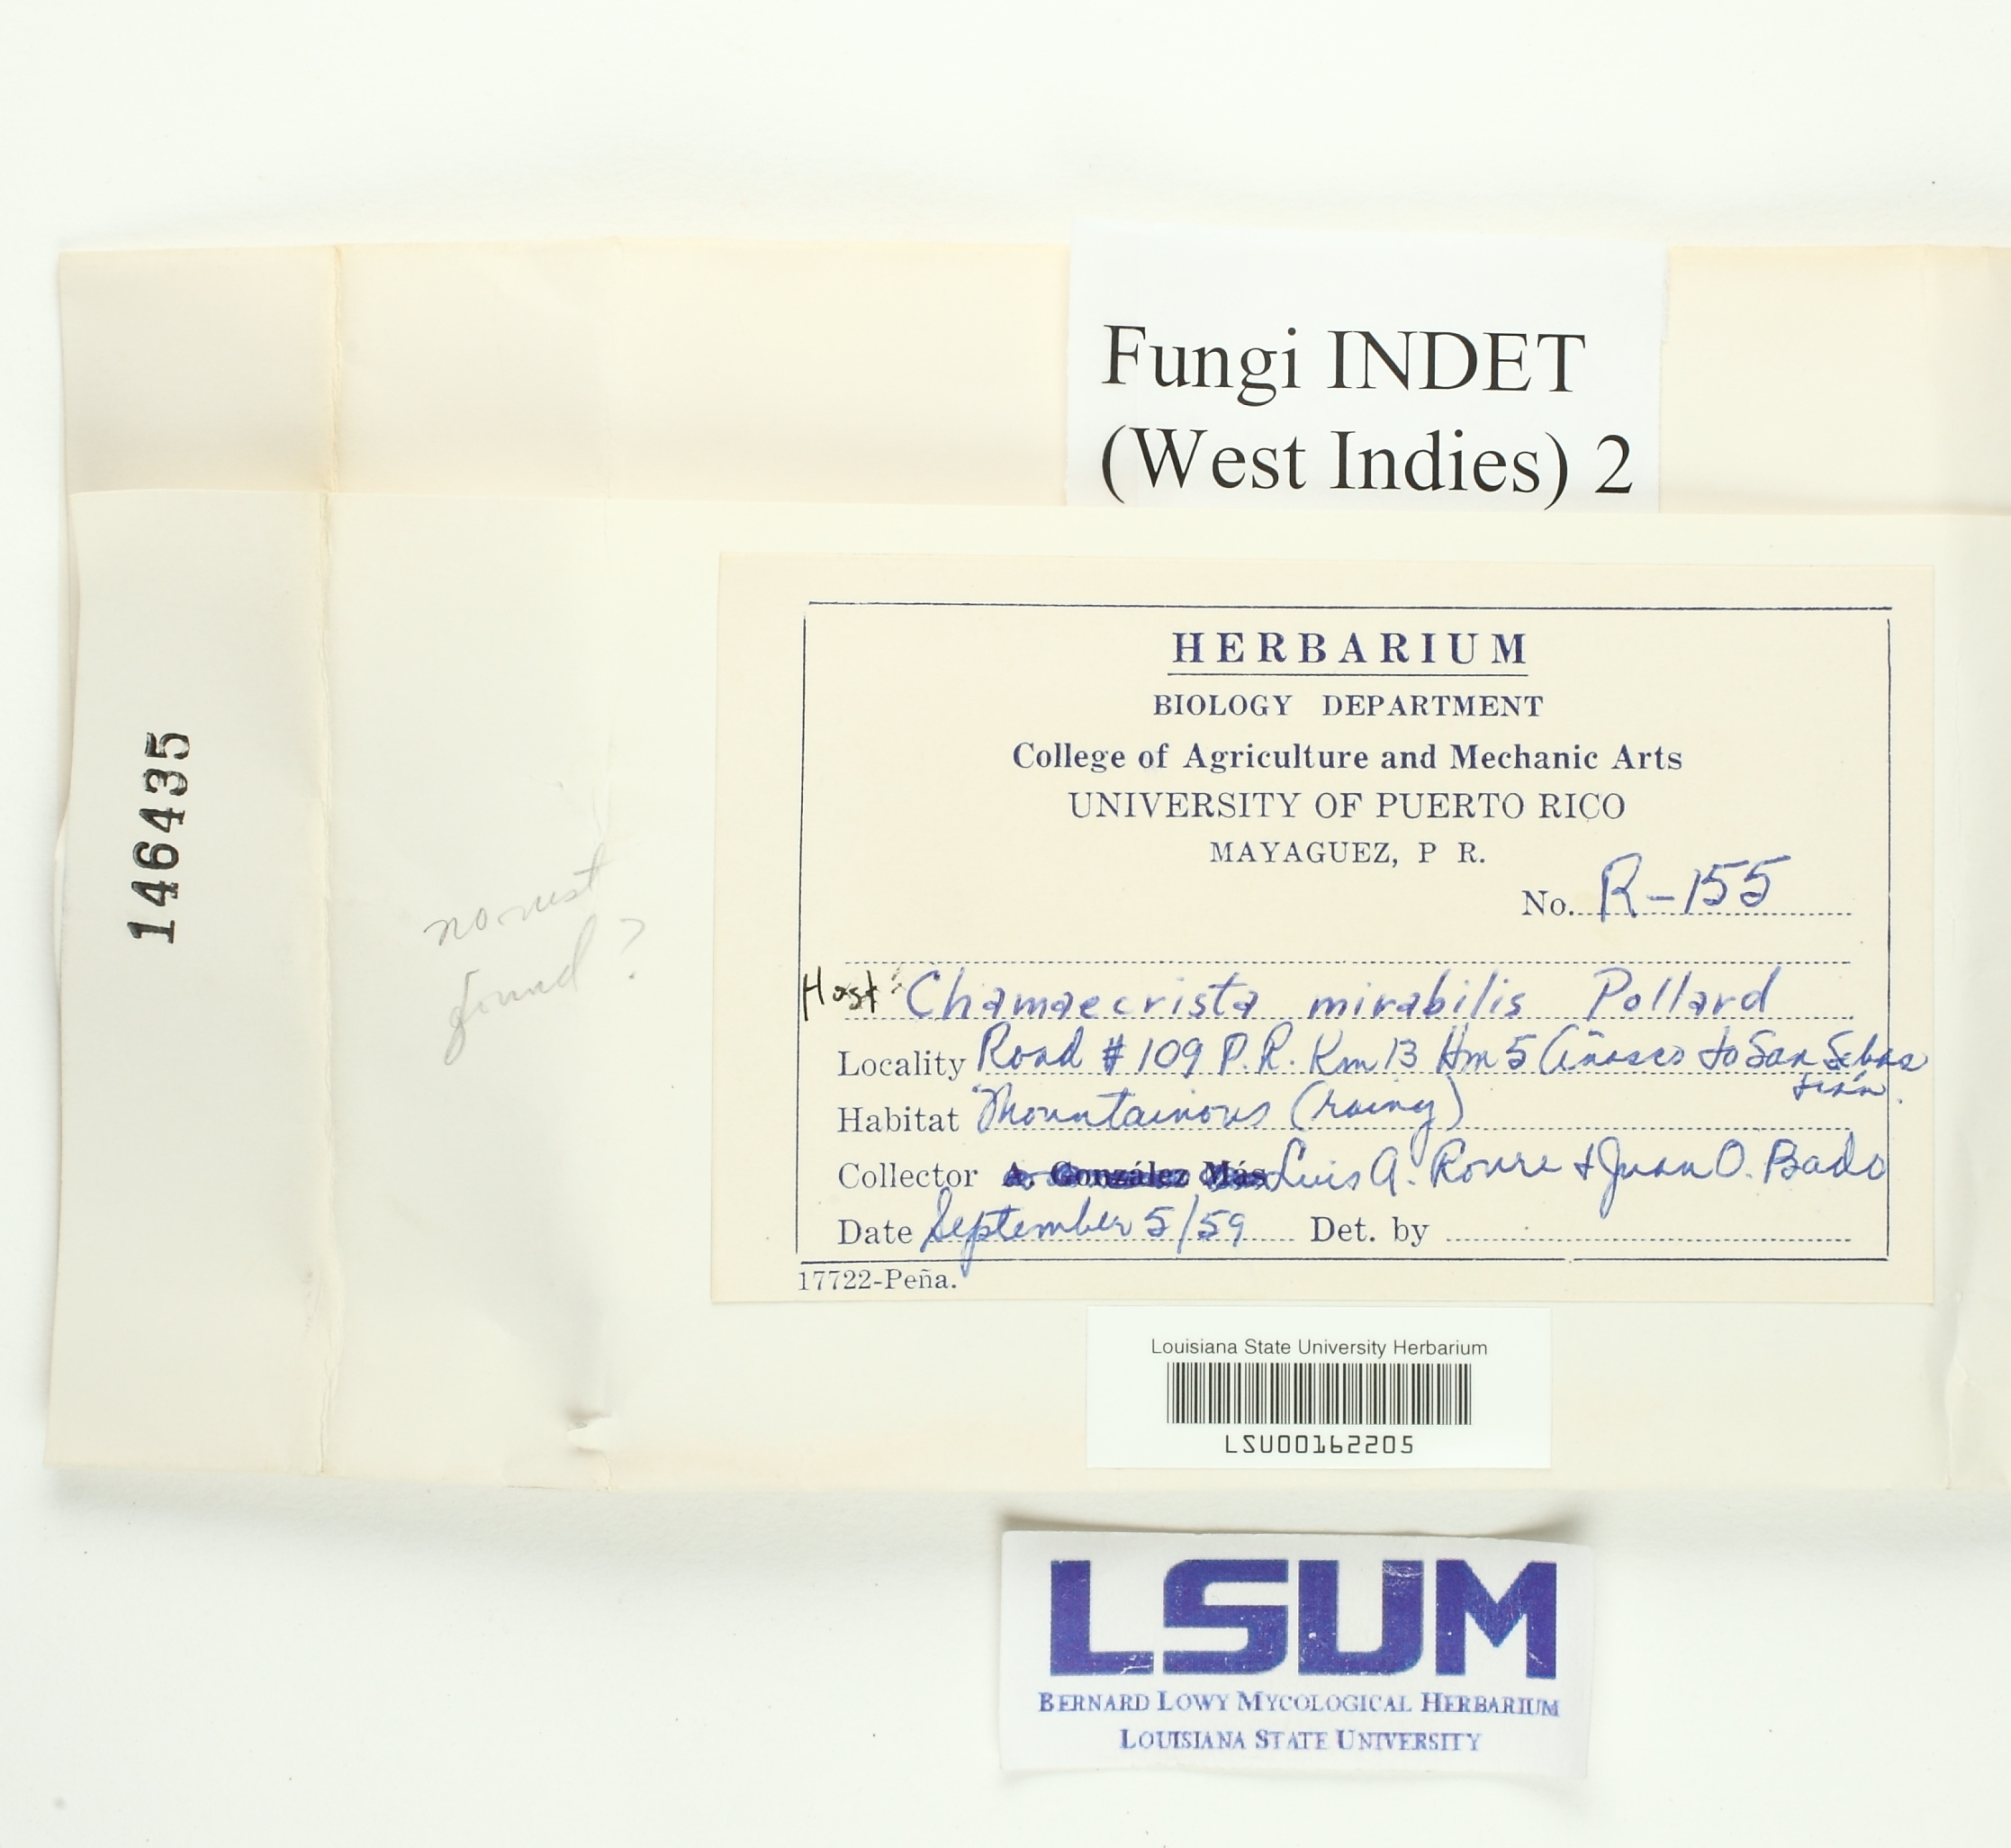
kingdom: Fungi
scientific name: Fungi
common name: Fungi
